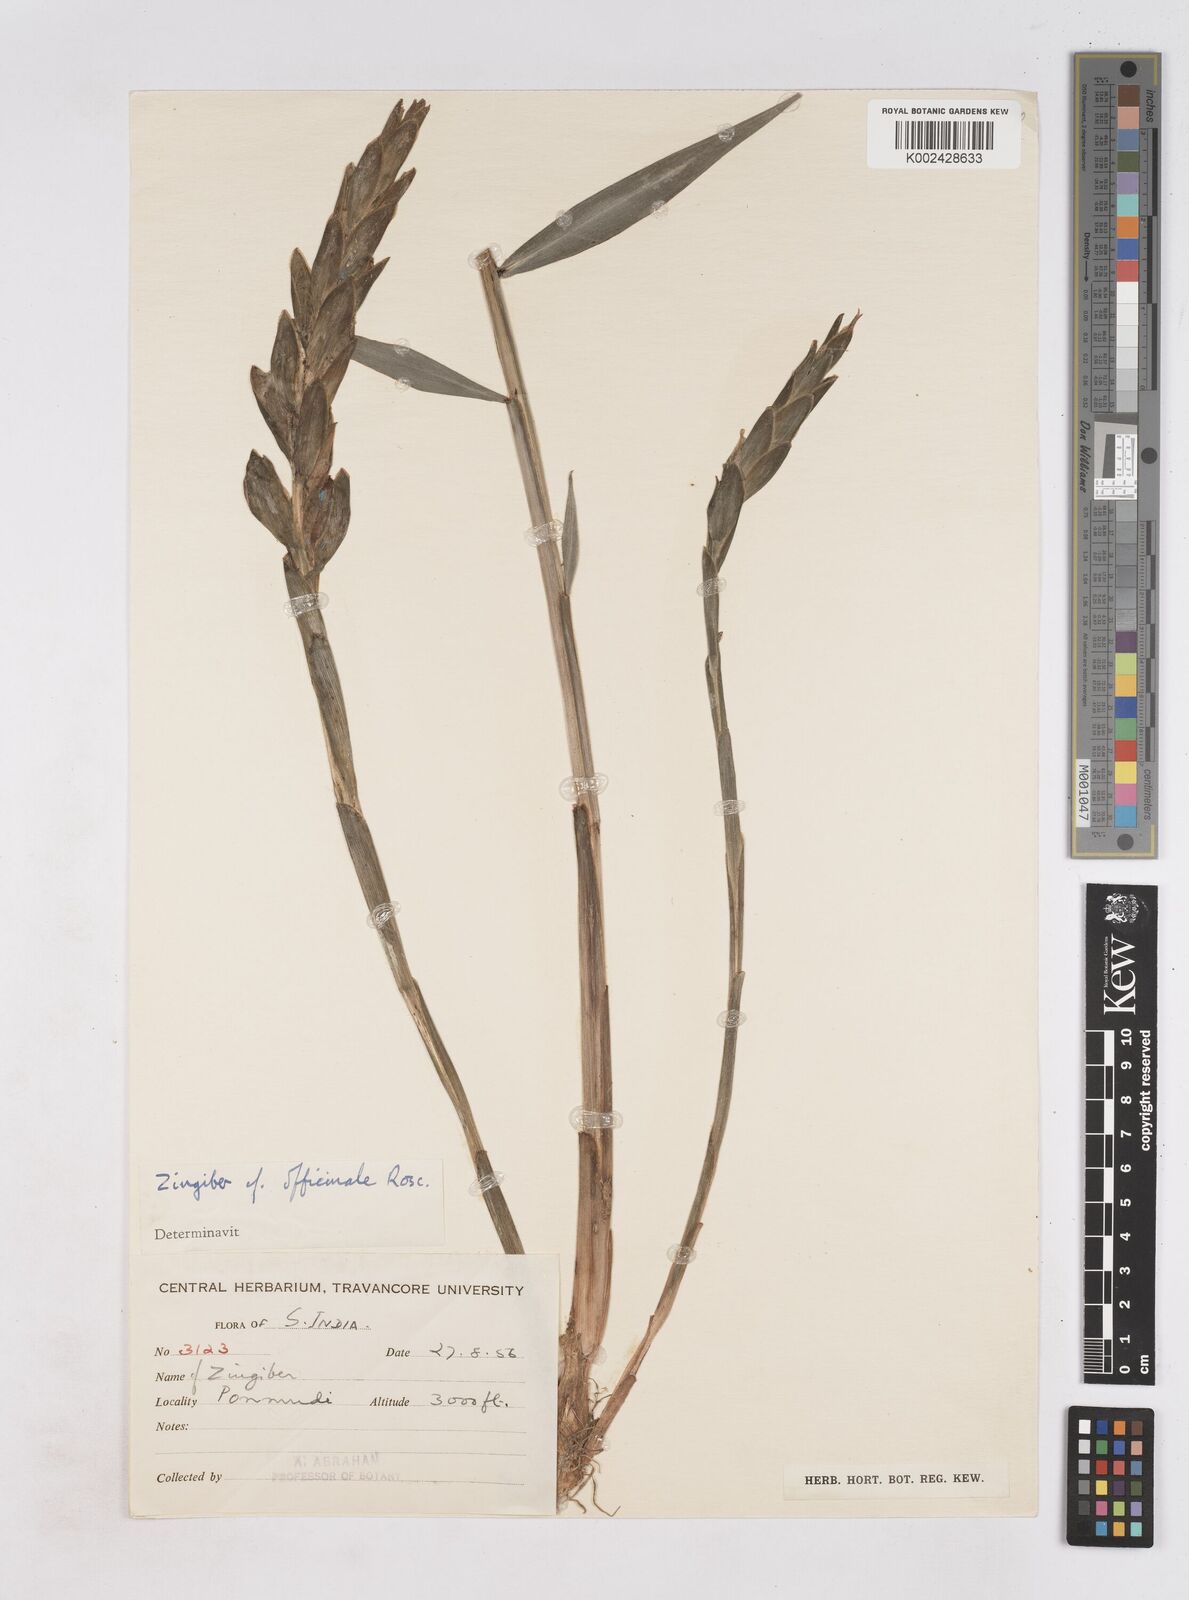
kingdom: Plantae
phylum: Tracheophyta
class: Liliopsida
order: Zingiberales
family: Zingiberaceae
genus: Zingiber
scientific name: Zingiber officinale
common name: Ginger
